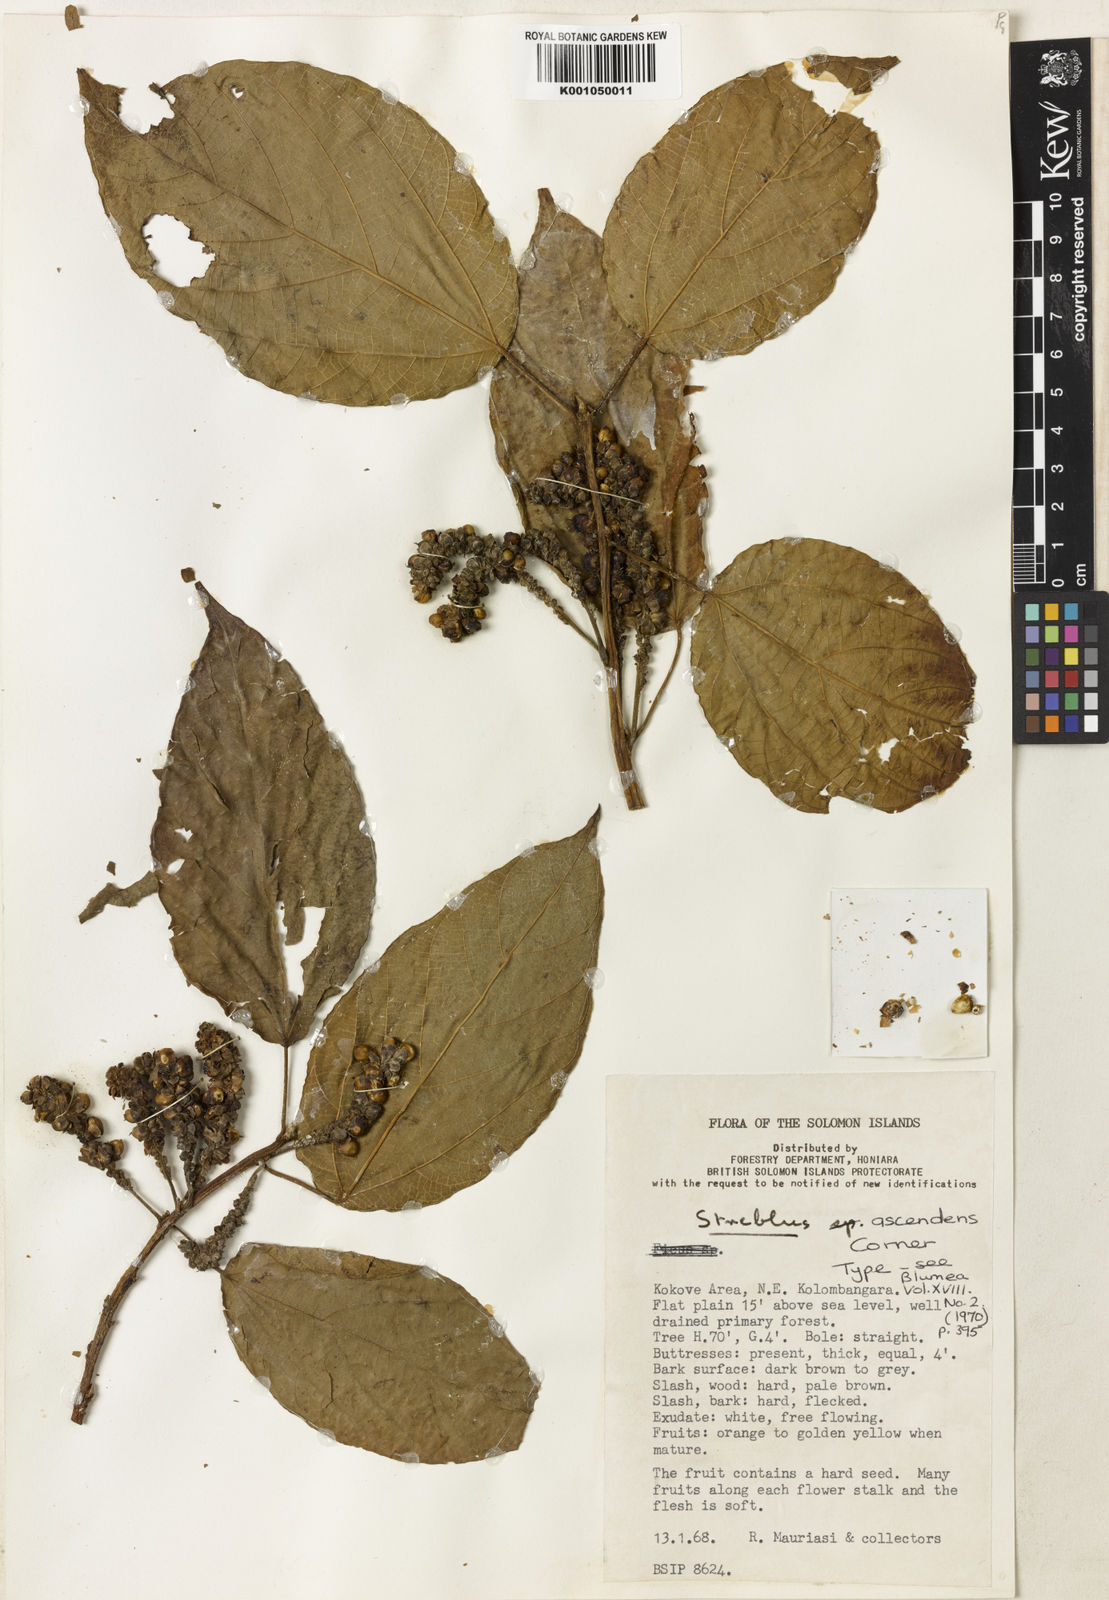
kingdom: Plantae
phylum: Tracheophyta
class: Magnoliopsida
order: Rosales
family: Moraceae
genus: Paratrophis
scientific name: Paratrophis ascendens
